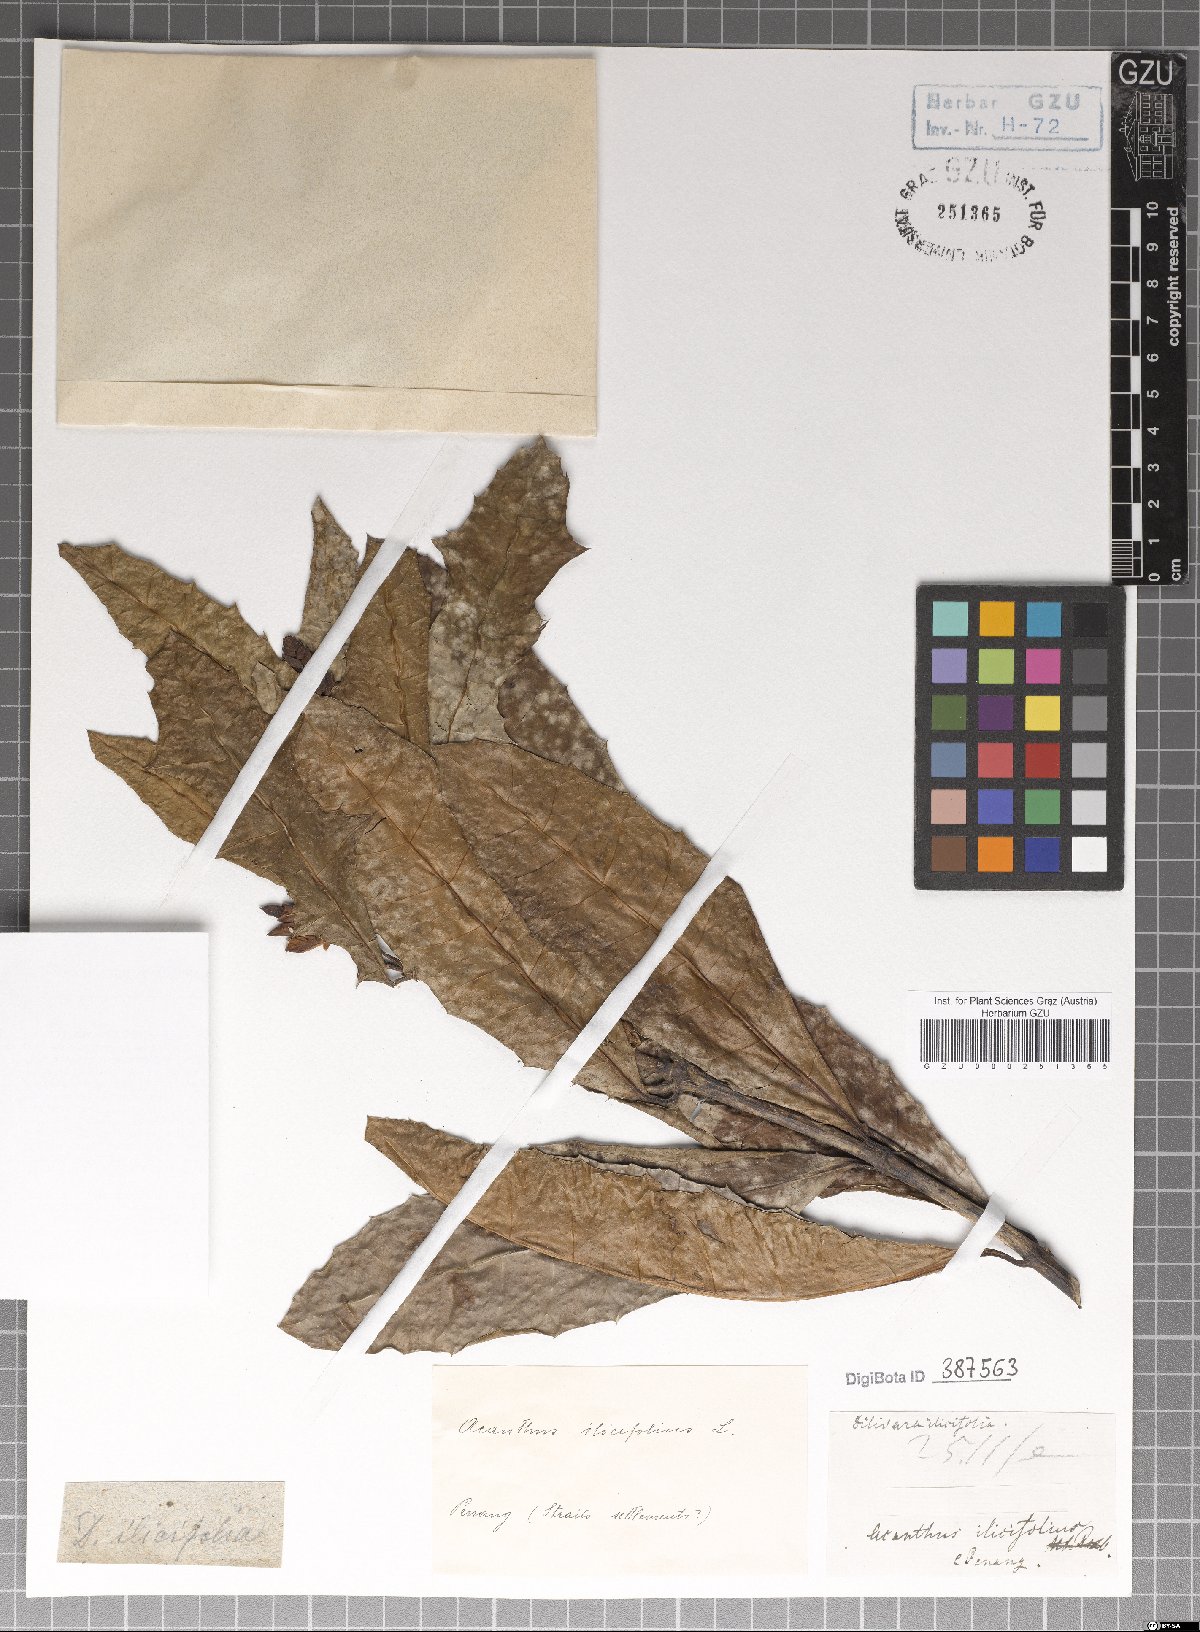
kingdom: Plantae
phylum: Tracheophyta
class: Magnoliopsida
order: Lamiales
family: Acanthaceae
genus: Acanthus
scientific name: Acanthus ilicifolius
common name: Holy mangrove
